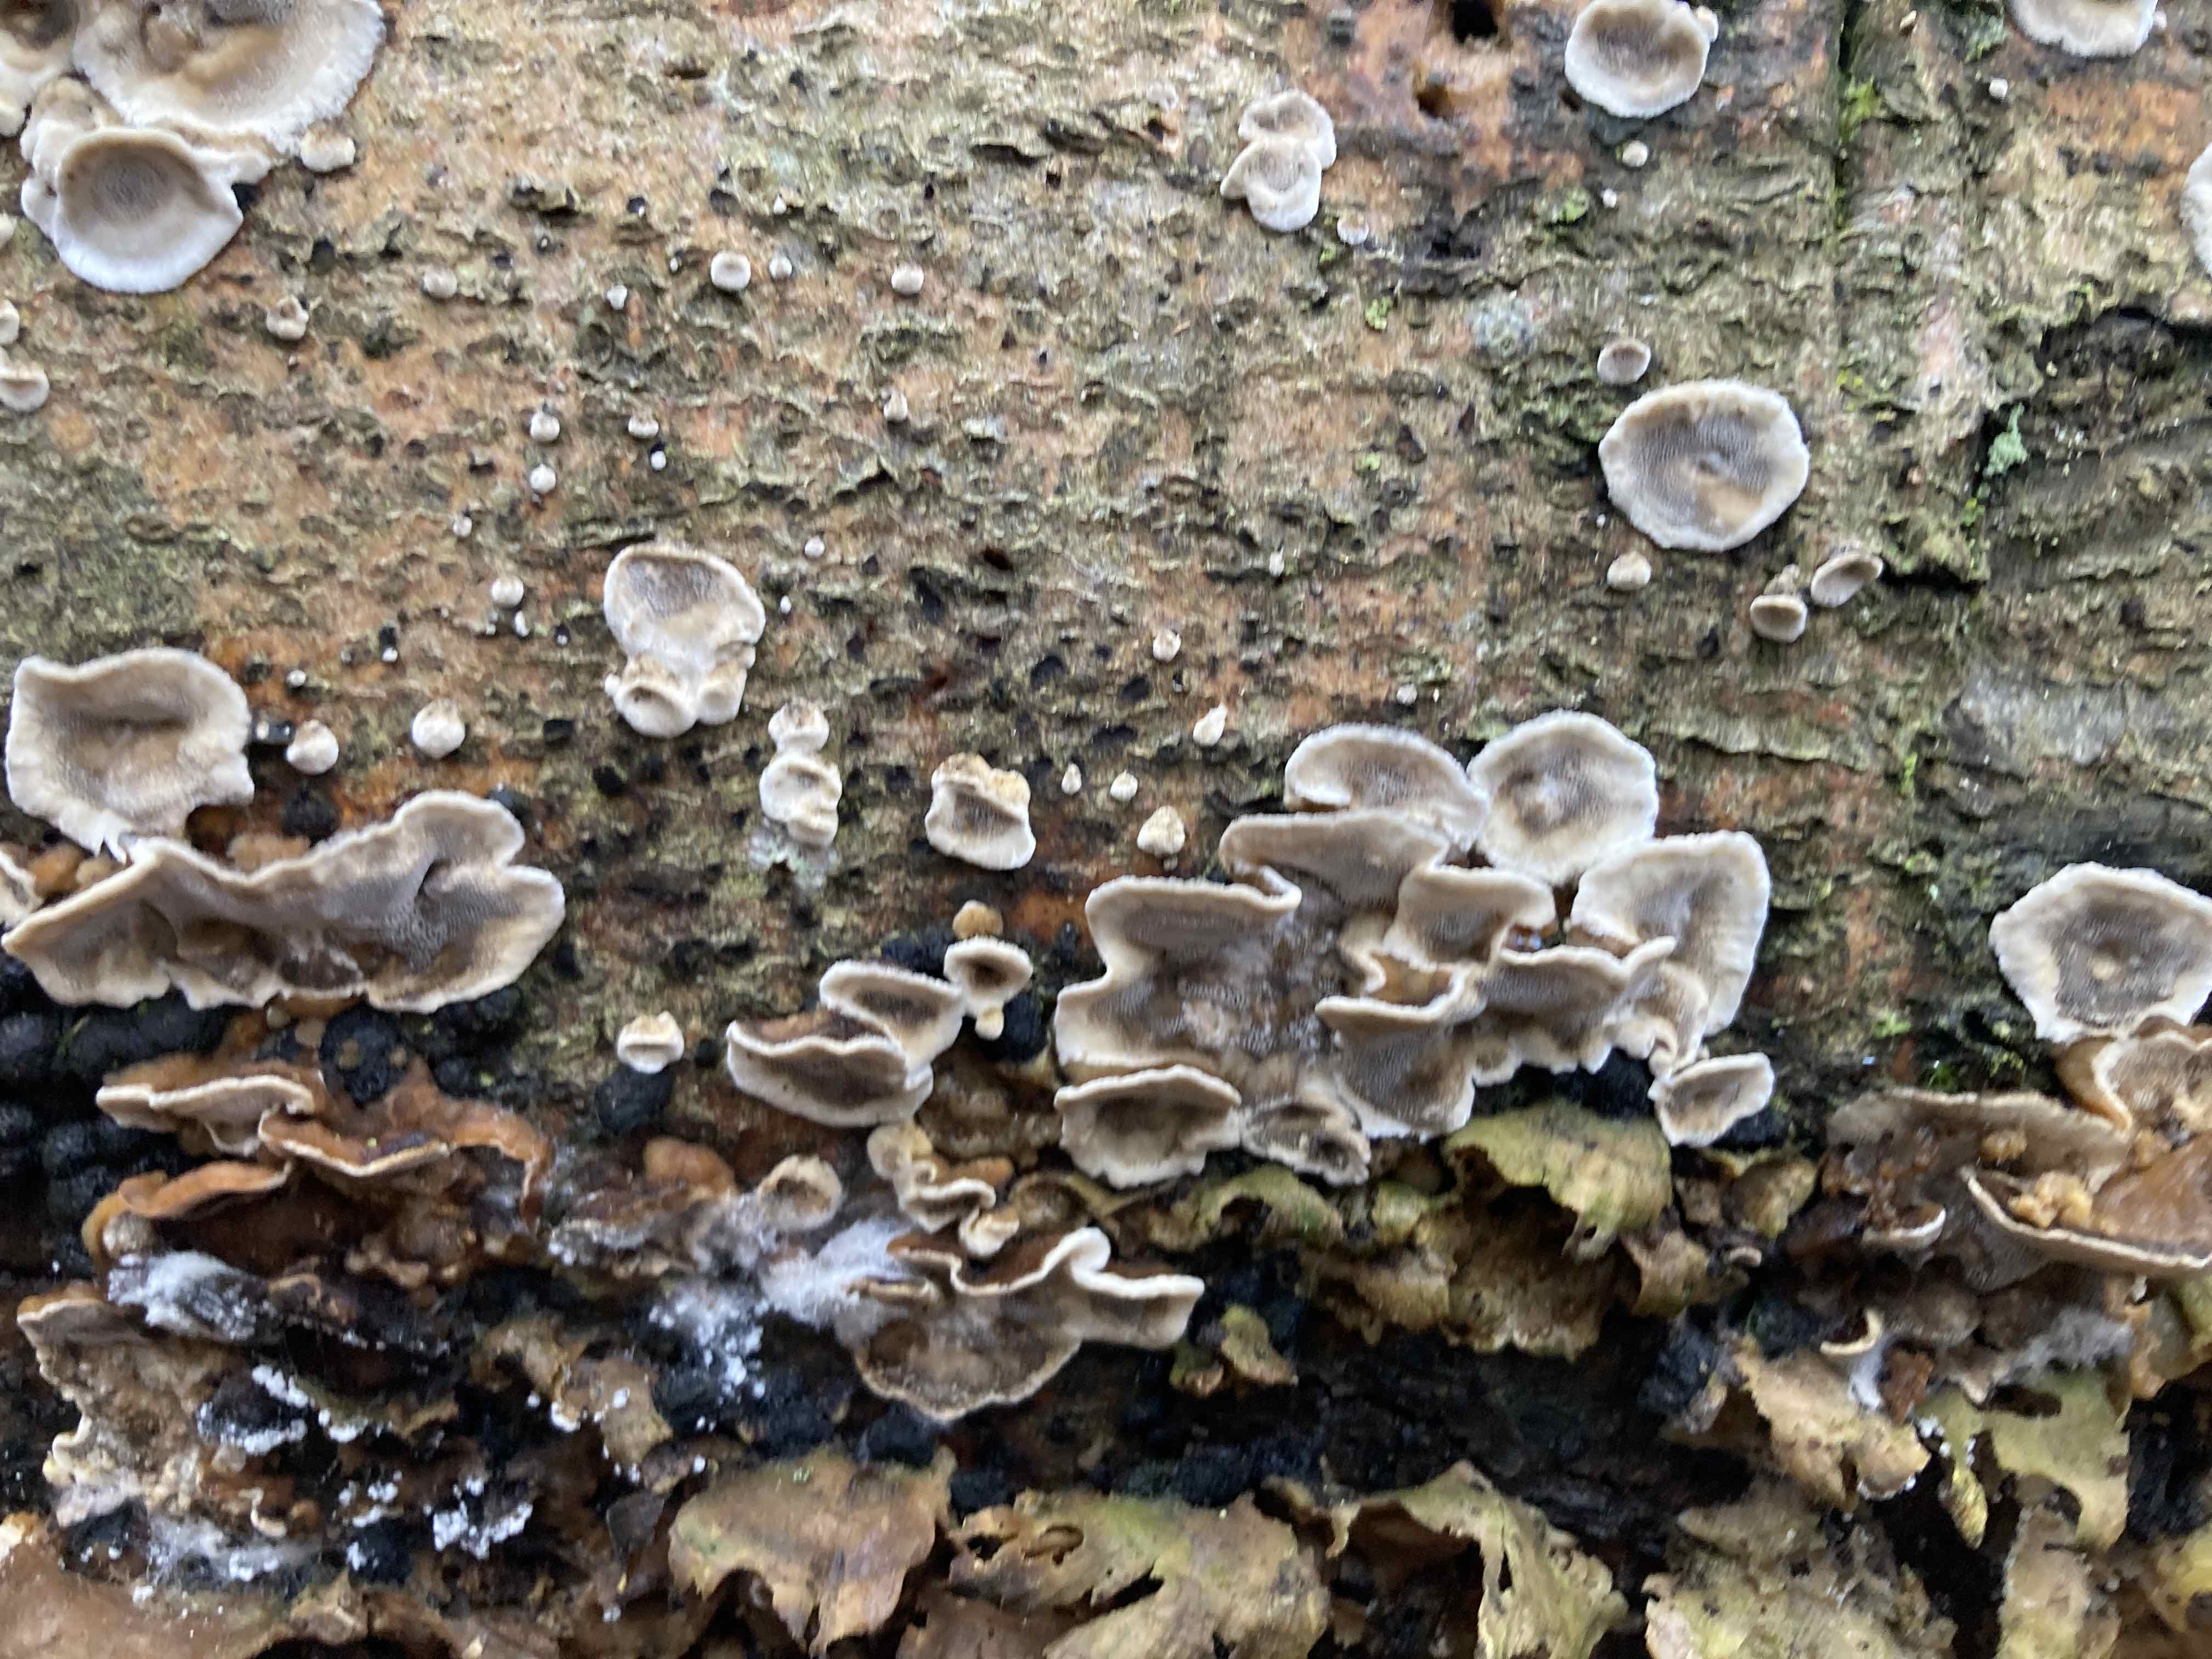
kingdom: Fungi
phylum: Basidiomycota
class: Agaricomycetes
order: Polyporales
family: Phanerochaetaceae
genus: Bjerkandera
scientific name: Bjerkandera adusta
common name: sveden sodporesvamp
